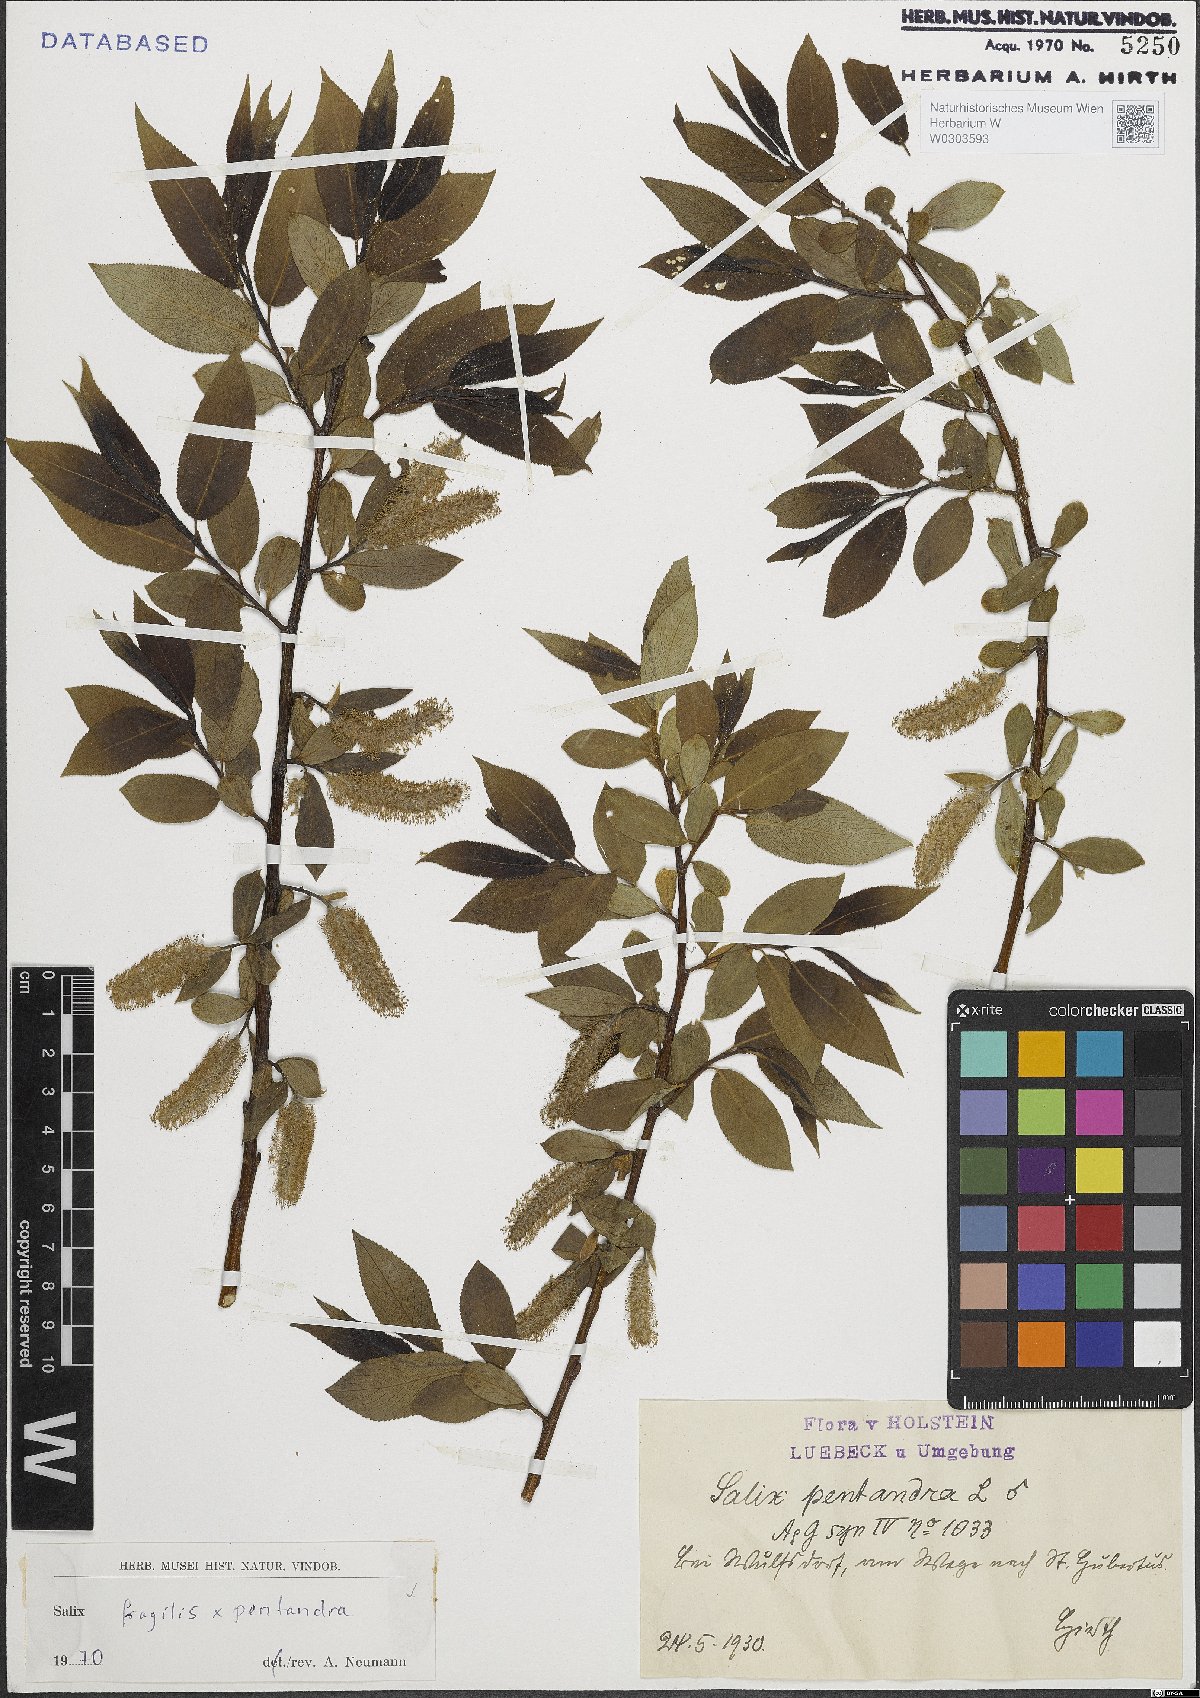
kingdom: Plantae
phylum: Tracheophyta
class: Magnoliopsida
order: Malpighiales
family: Salicaceae
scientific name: Salicaceae
